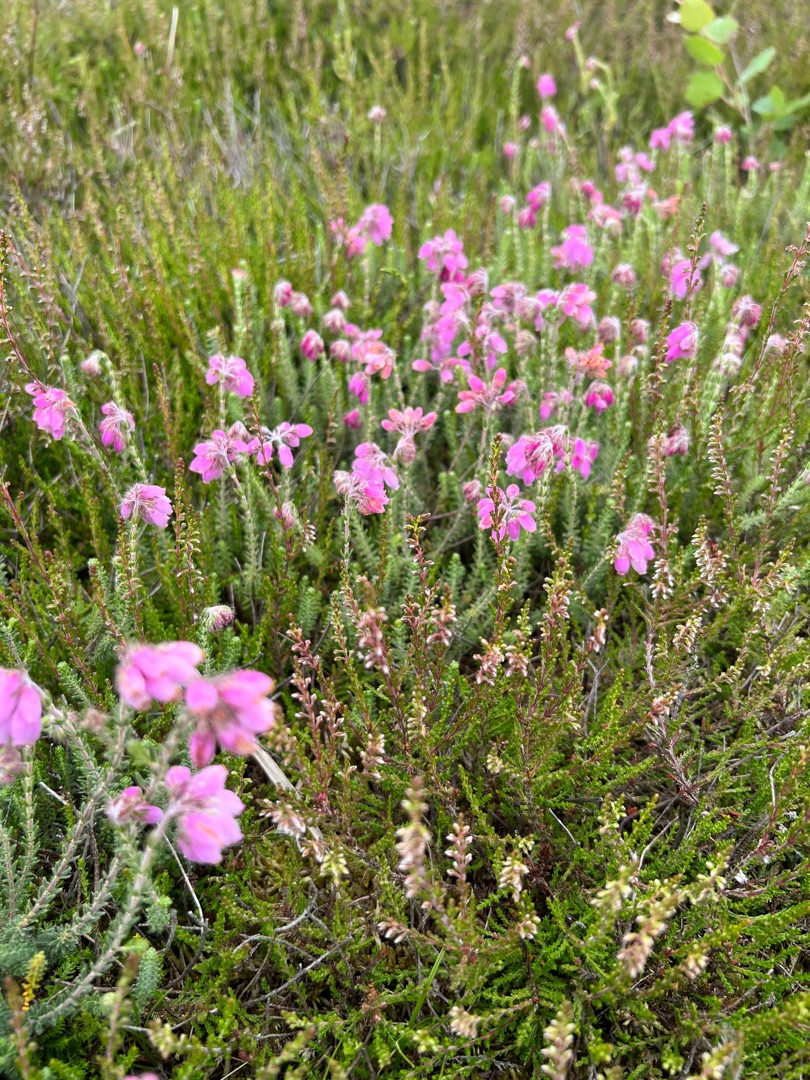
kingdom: Plantae
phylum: Tracheophyta
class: Magnoliopsida
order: Ericales
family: Ericaceae
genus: Erica
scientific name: Erica tetralix
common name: Klokkelyng
